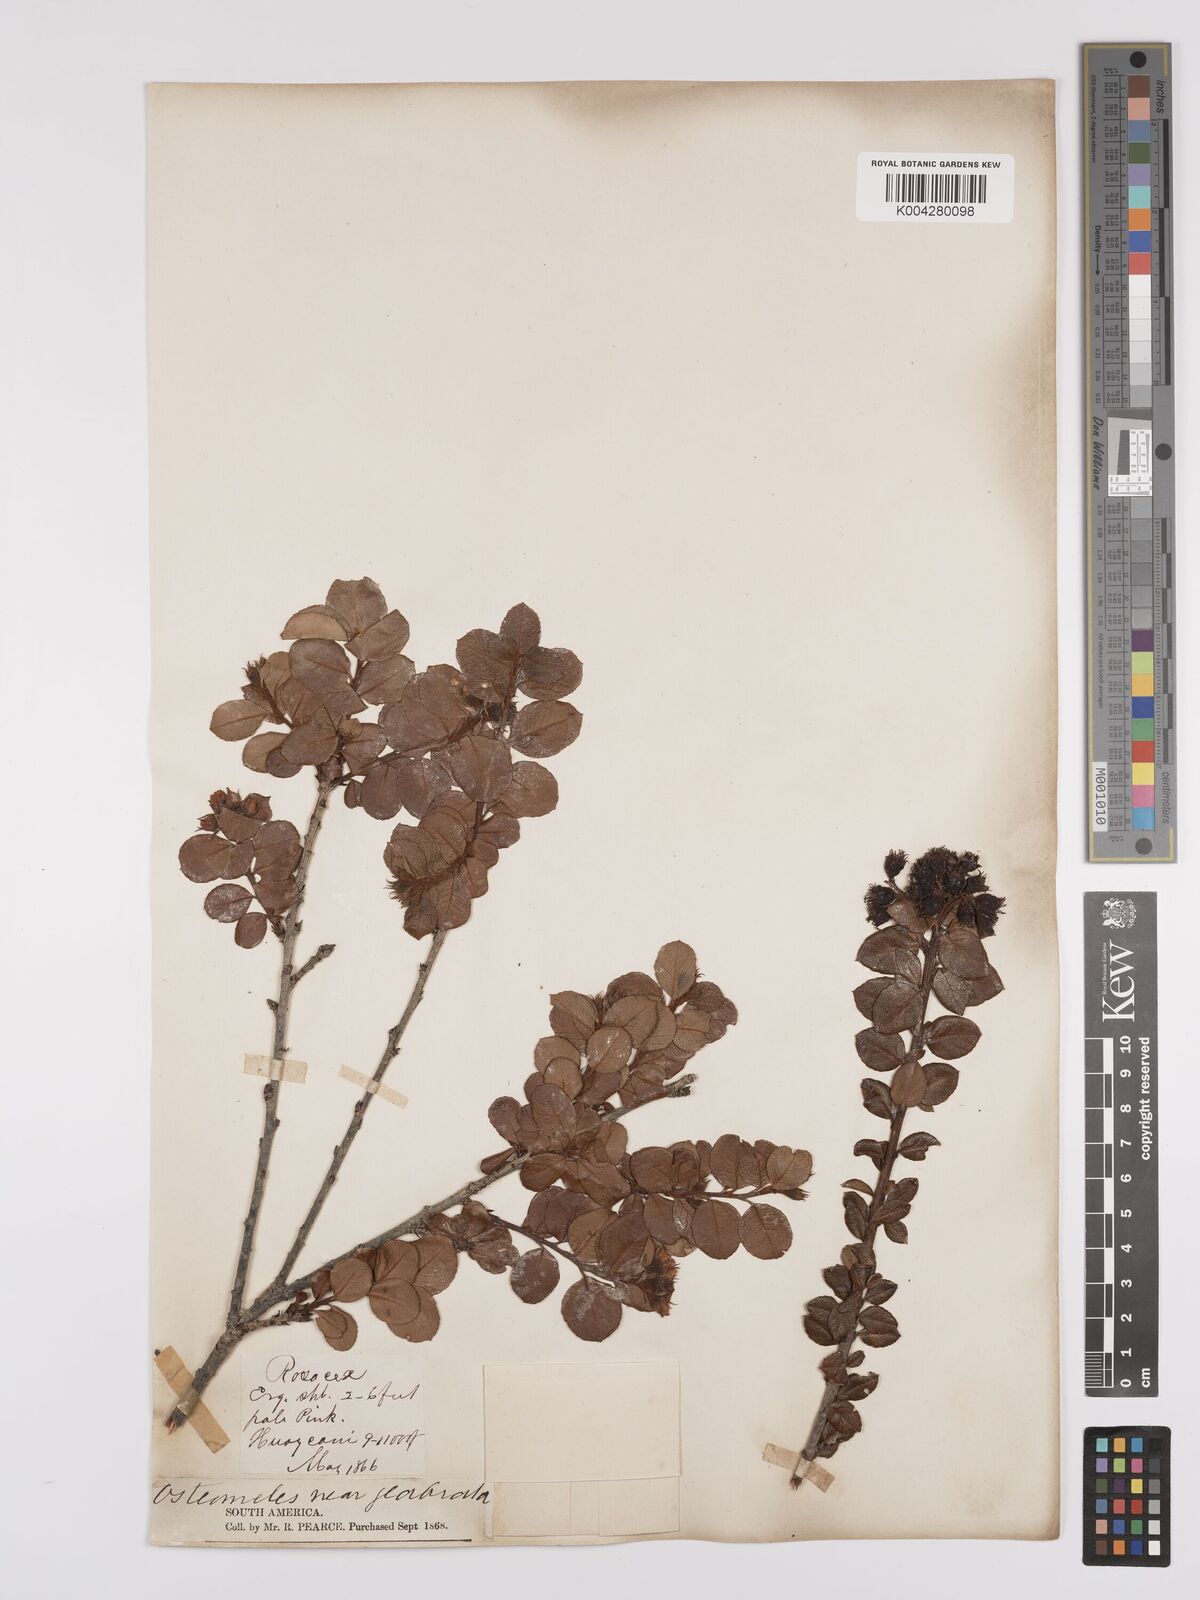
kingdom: Plantae
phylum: Tracheophyta
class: Magnoliopsida
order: Rosales
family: Rosaceae
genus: Hesperomeles
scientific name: Hesperomeles obtusifolia
